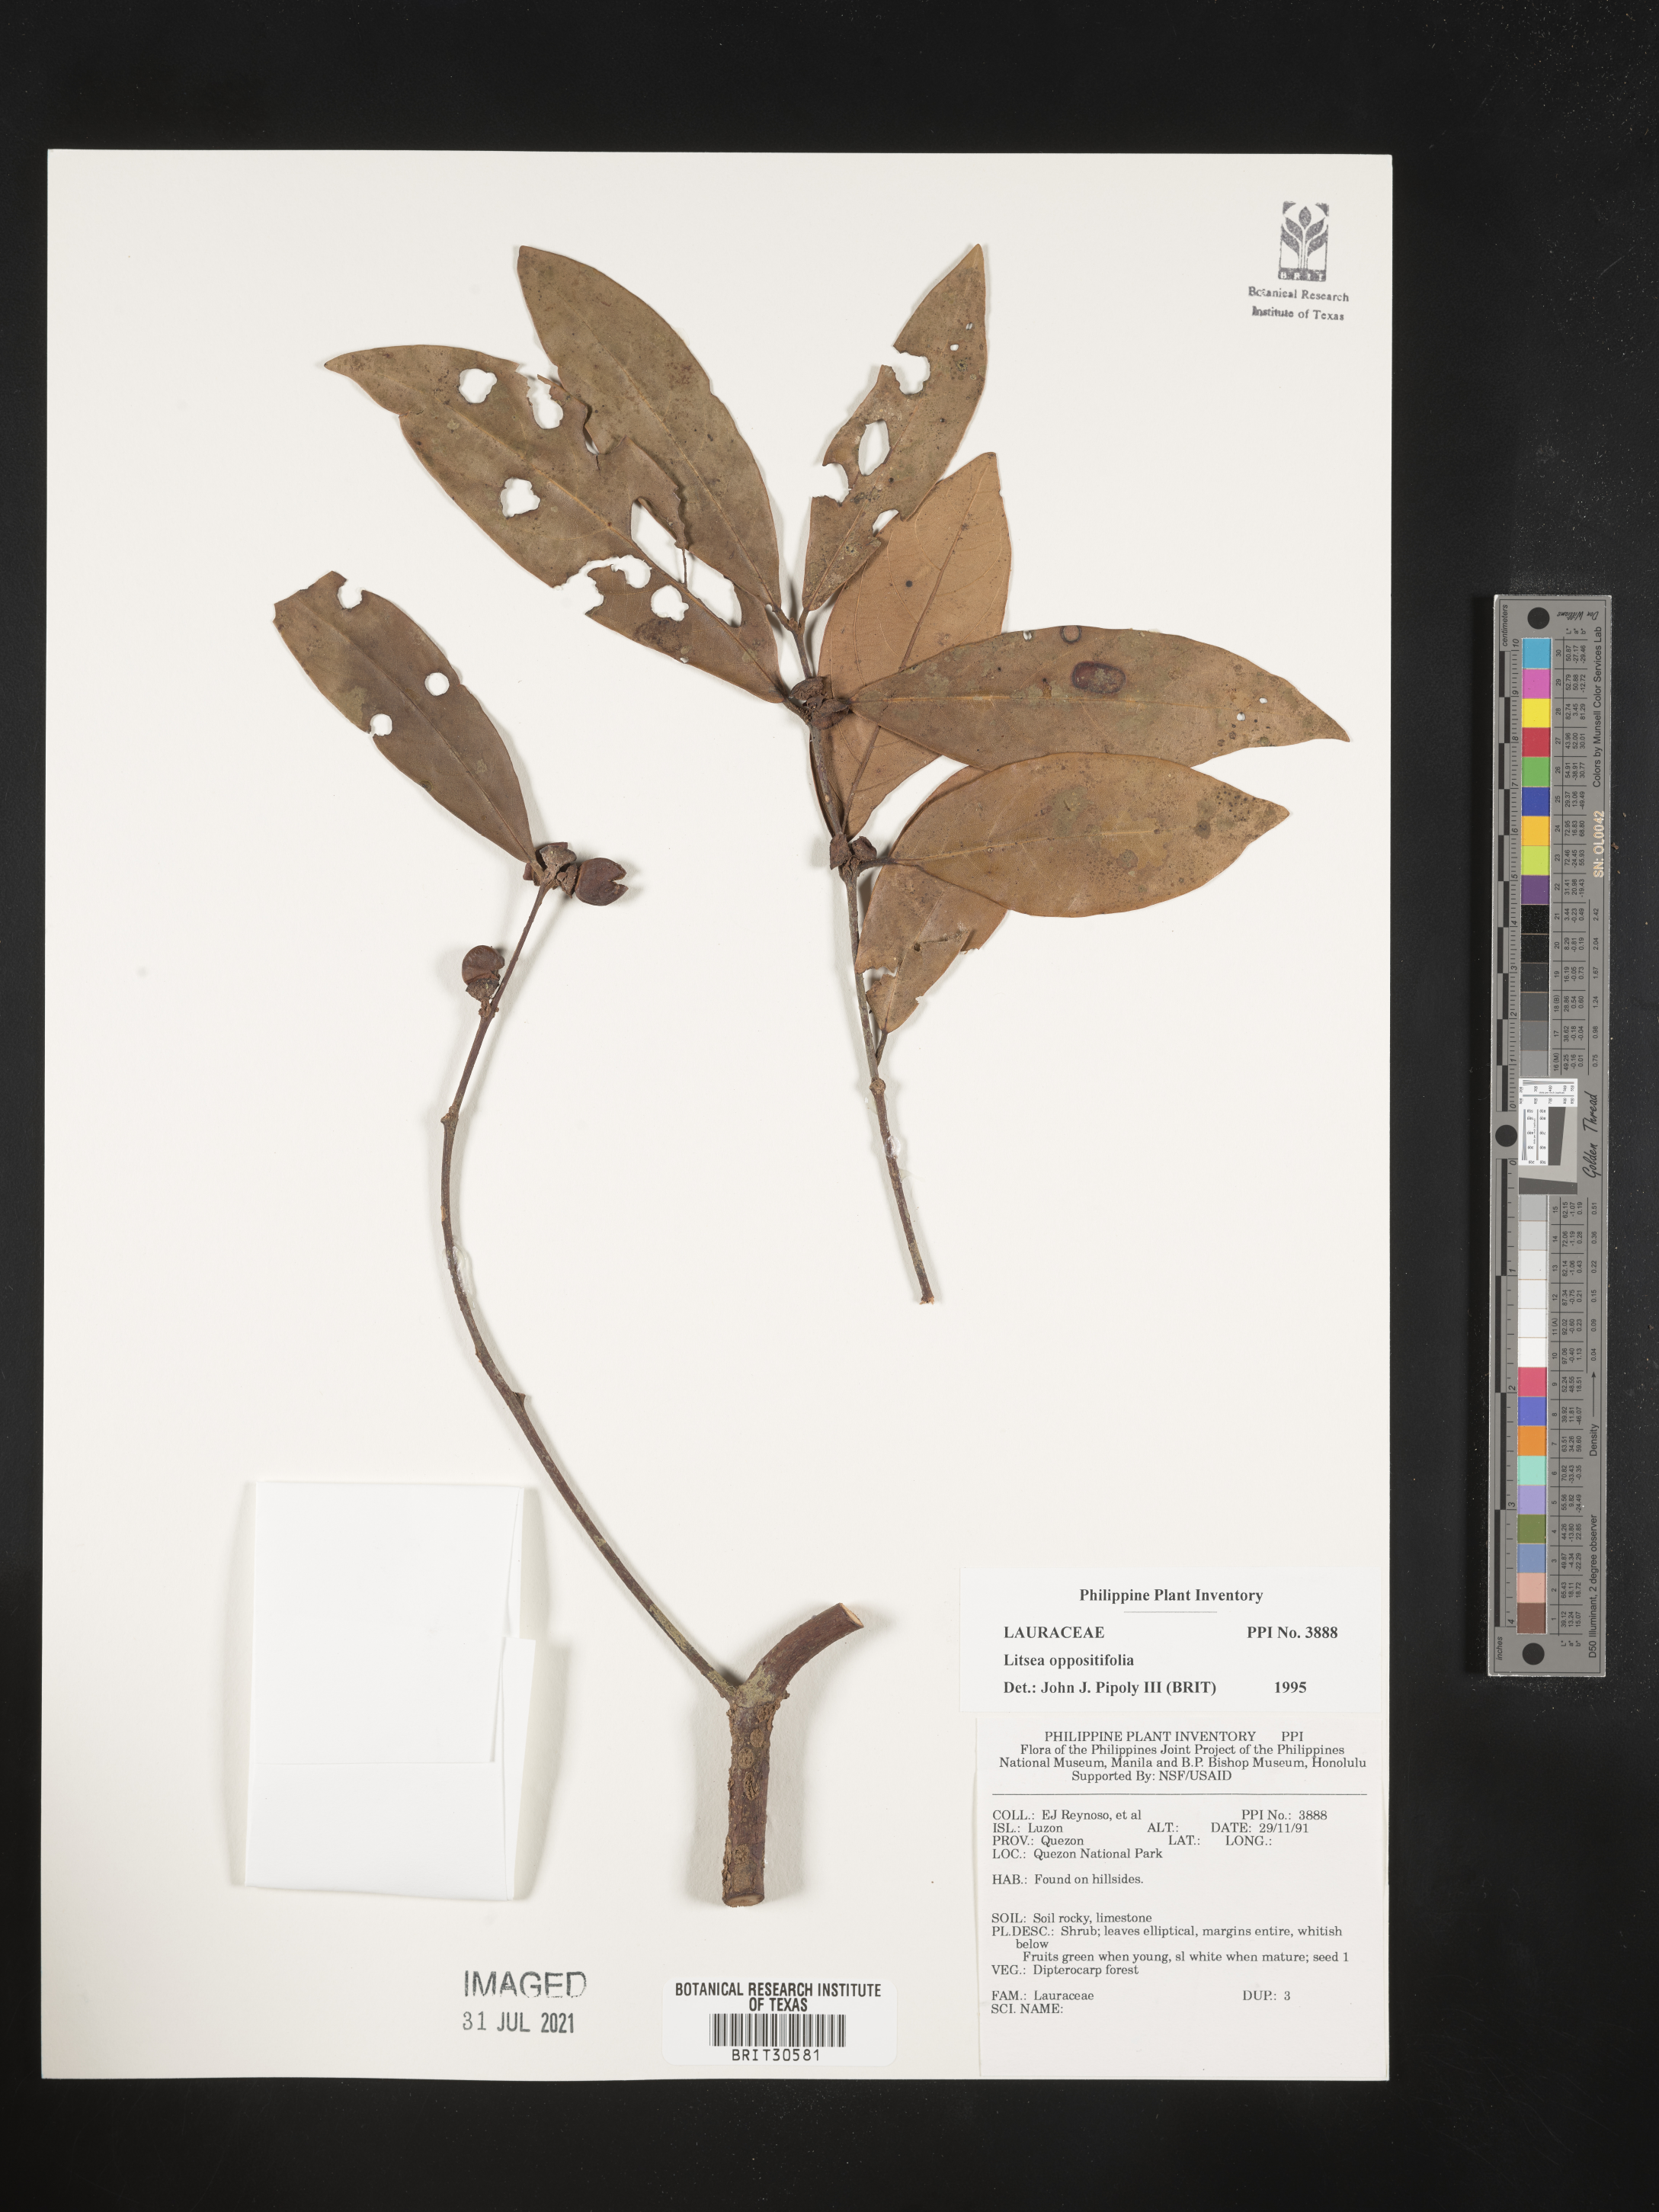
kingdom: Plantae
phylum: Tracheophyta
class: Magnoliopsida
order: Laurales
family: Lauraceae
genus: Litsea
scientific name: Litsea oppositifolia
